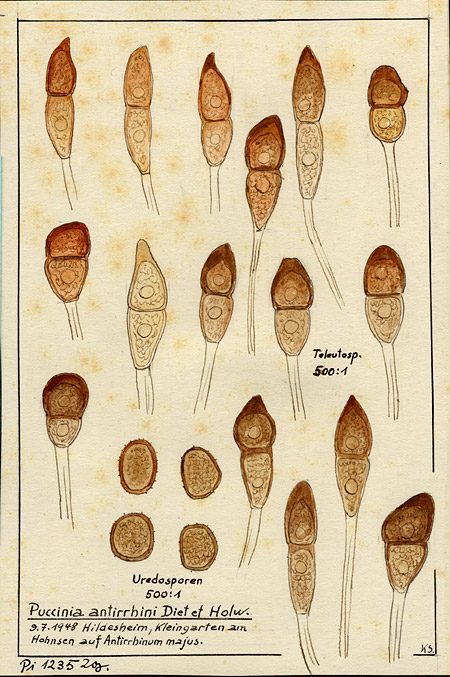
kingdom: Fungi
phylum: Basidiomycota
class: Pucciniomycetes
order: Pucciniales
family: Pucciniaceae
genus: Puccinia
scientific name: Puccinia antirrhini
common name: Antirrhinum rust
